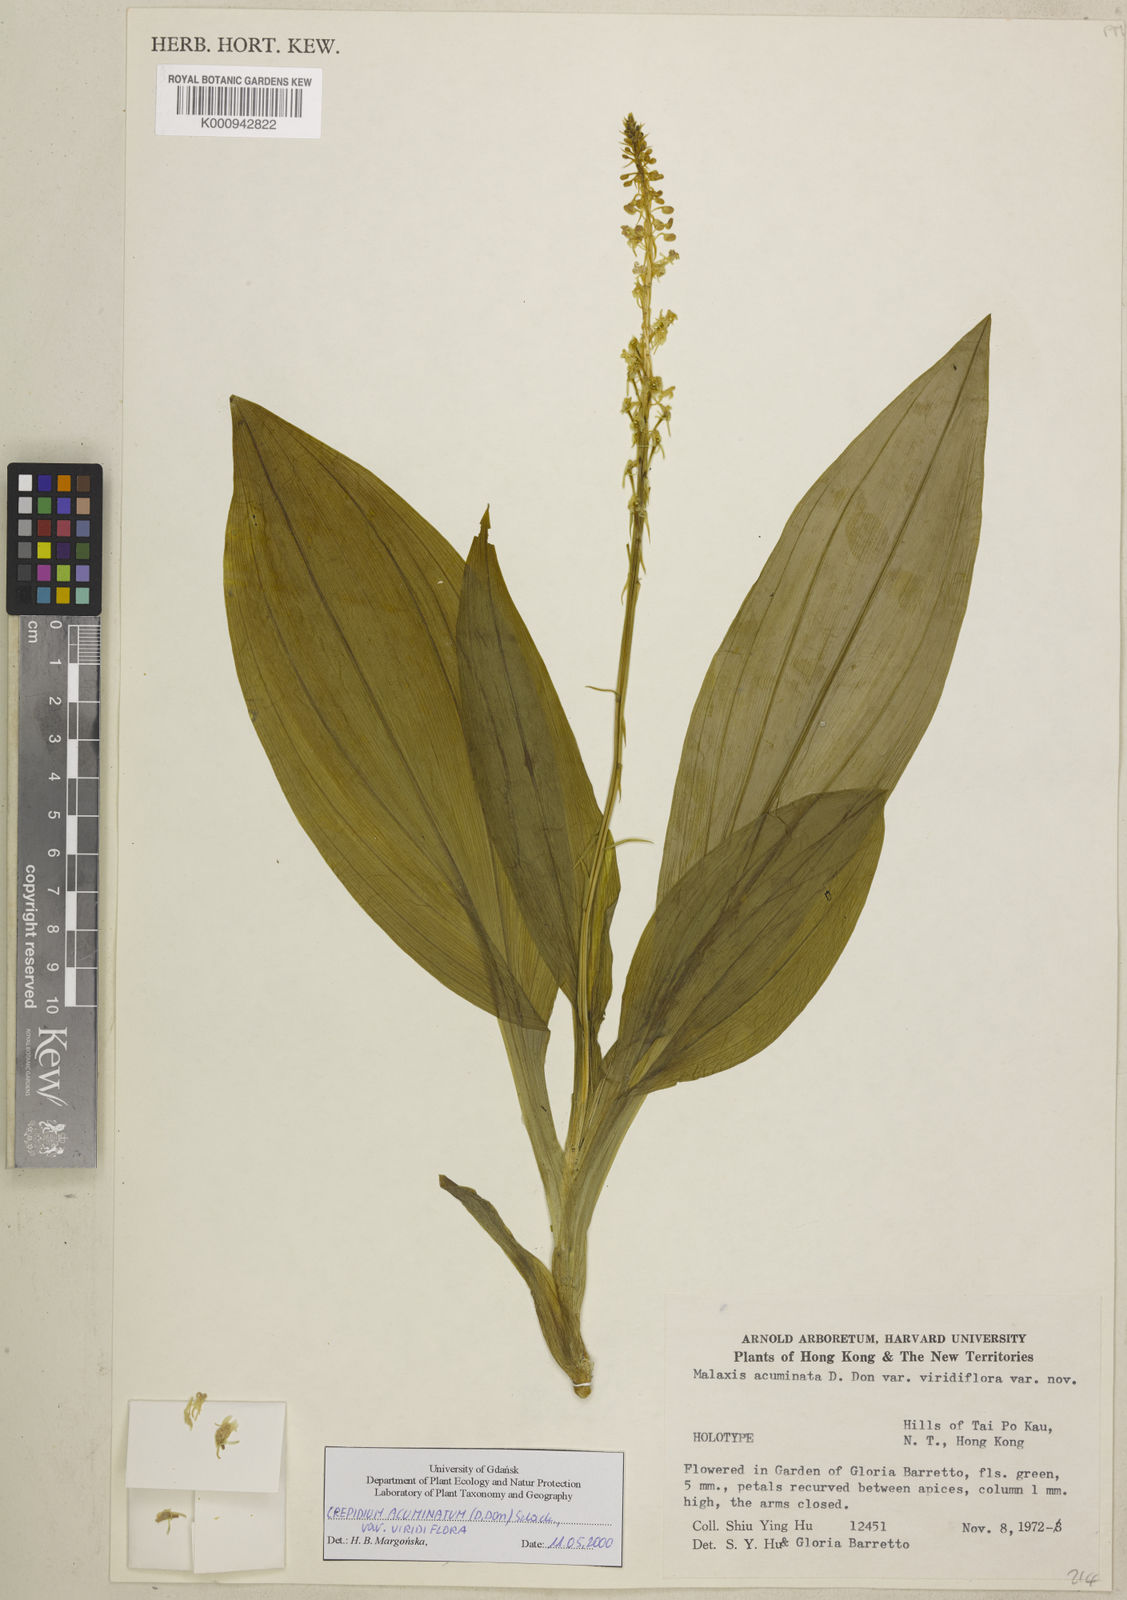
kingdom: Plantae
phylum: Tracheophyta
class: Liliopsida
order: Asparagales
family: Orchidaceae
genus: Crepidium
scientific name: Crepidium acuminatum
